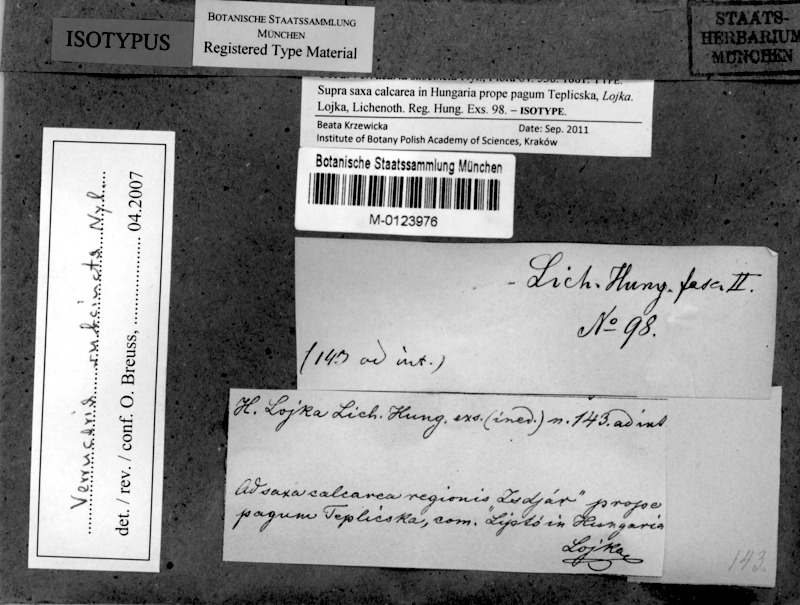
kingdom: Fungi
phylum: Ascomycota
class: Eurotiomycetes
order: Verrucariales
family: Verrucariaceae
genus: Verrucaria
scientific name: Verrucaria cincta
